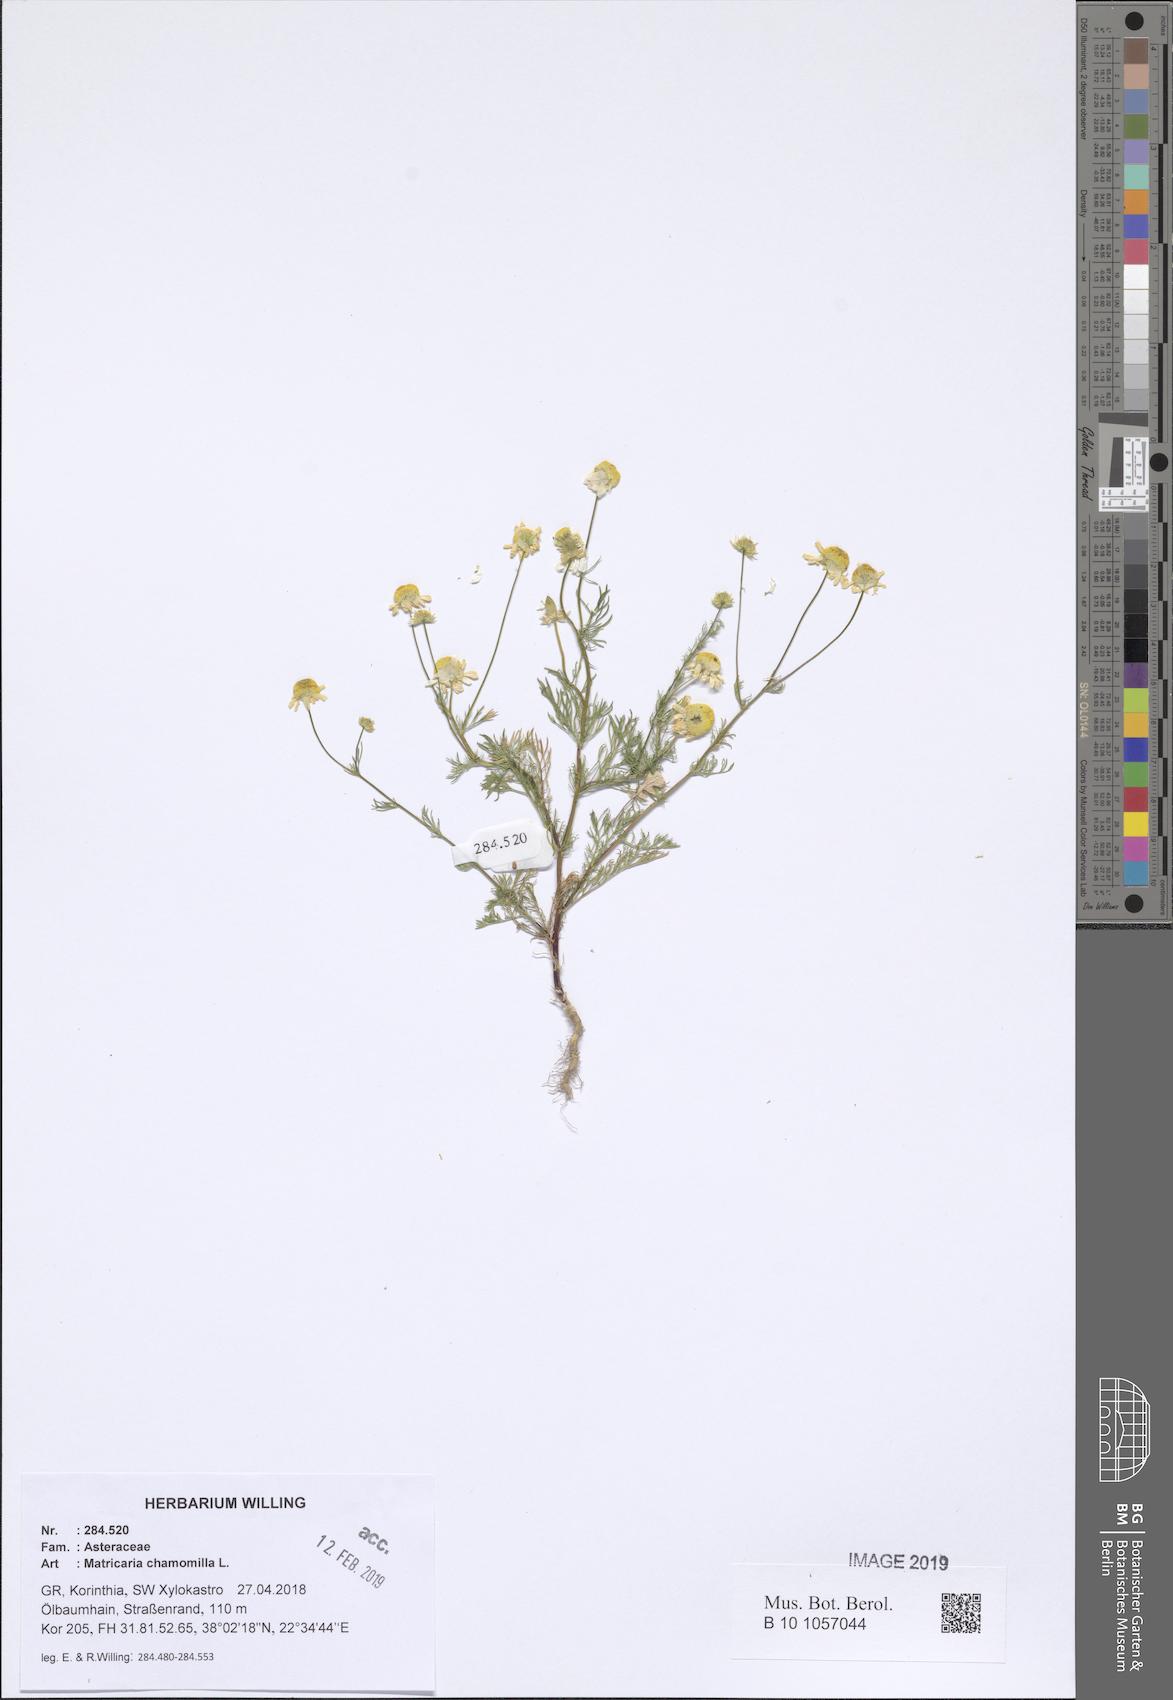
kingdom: Plantae
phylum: Tracheophyta
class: Magnoliopsida
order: Asterales
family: Asteraceae
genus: Matricaria
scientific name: Matricaria chamomilla
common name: Scented mayweed
